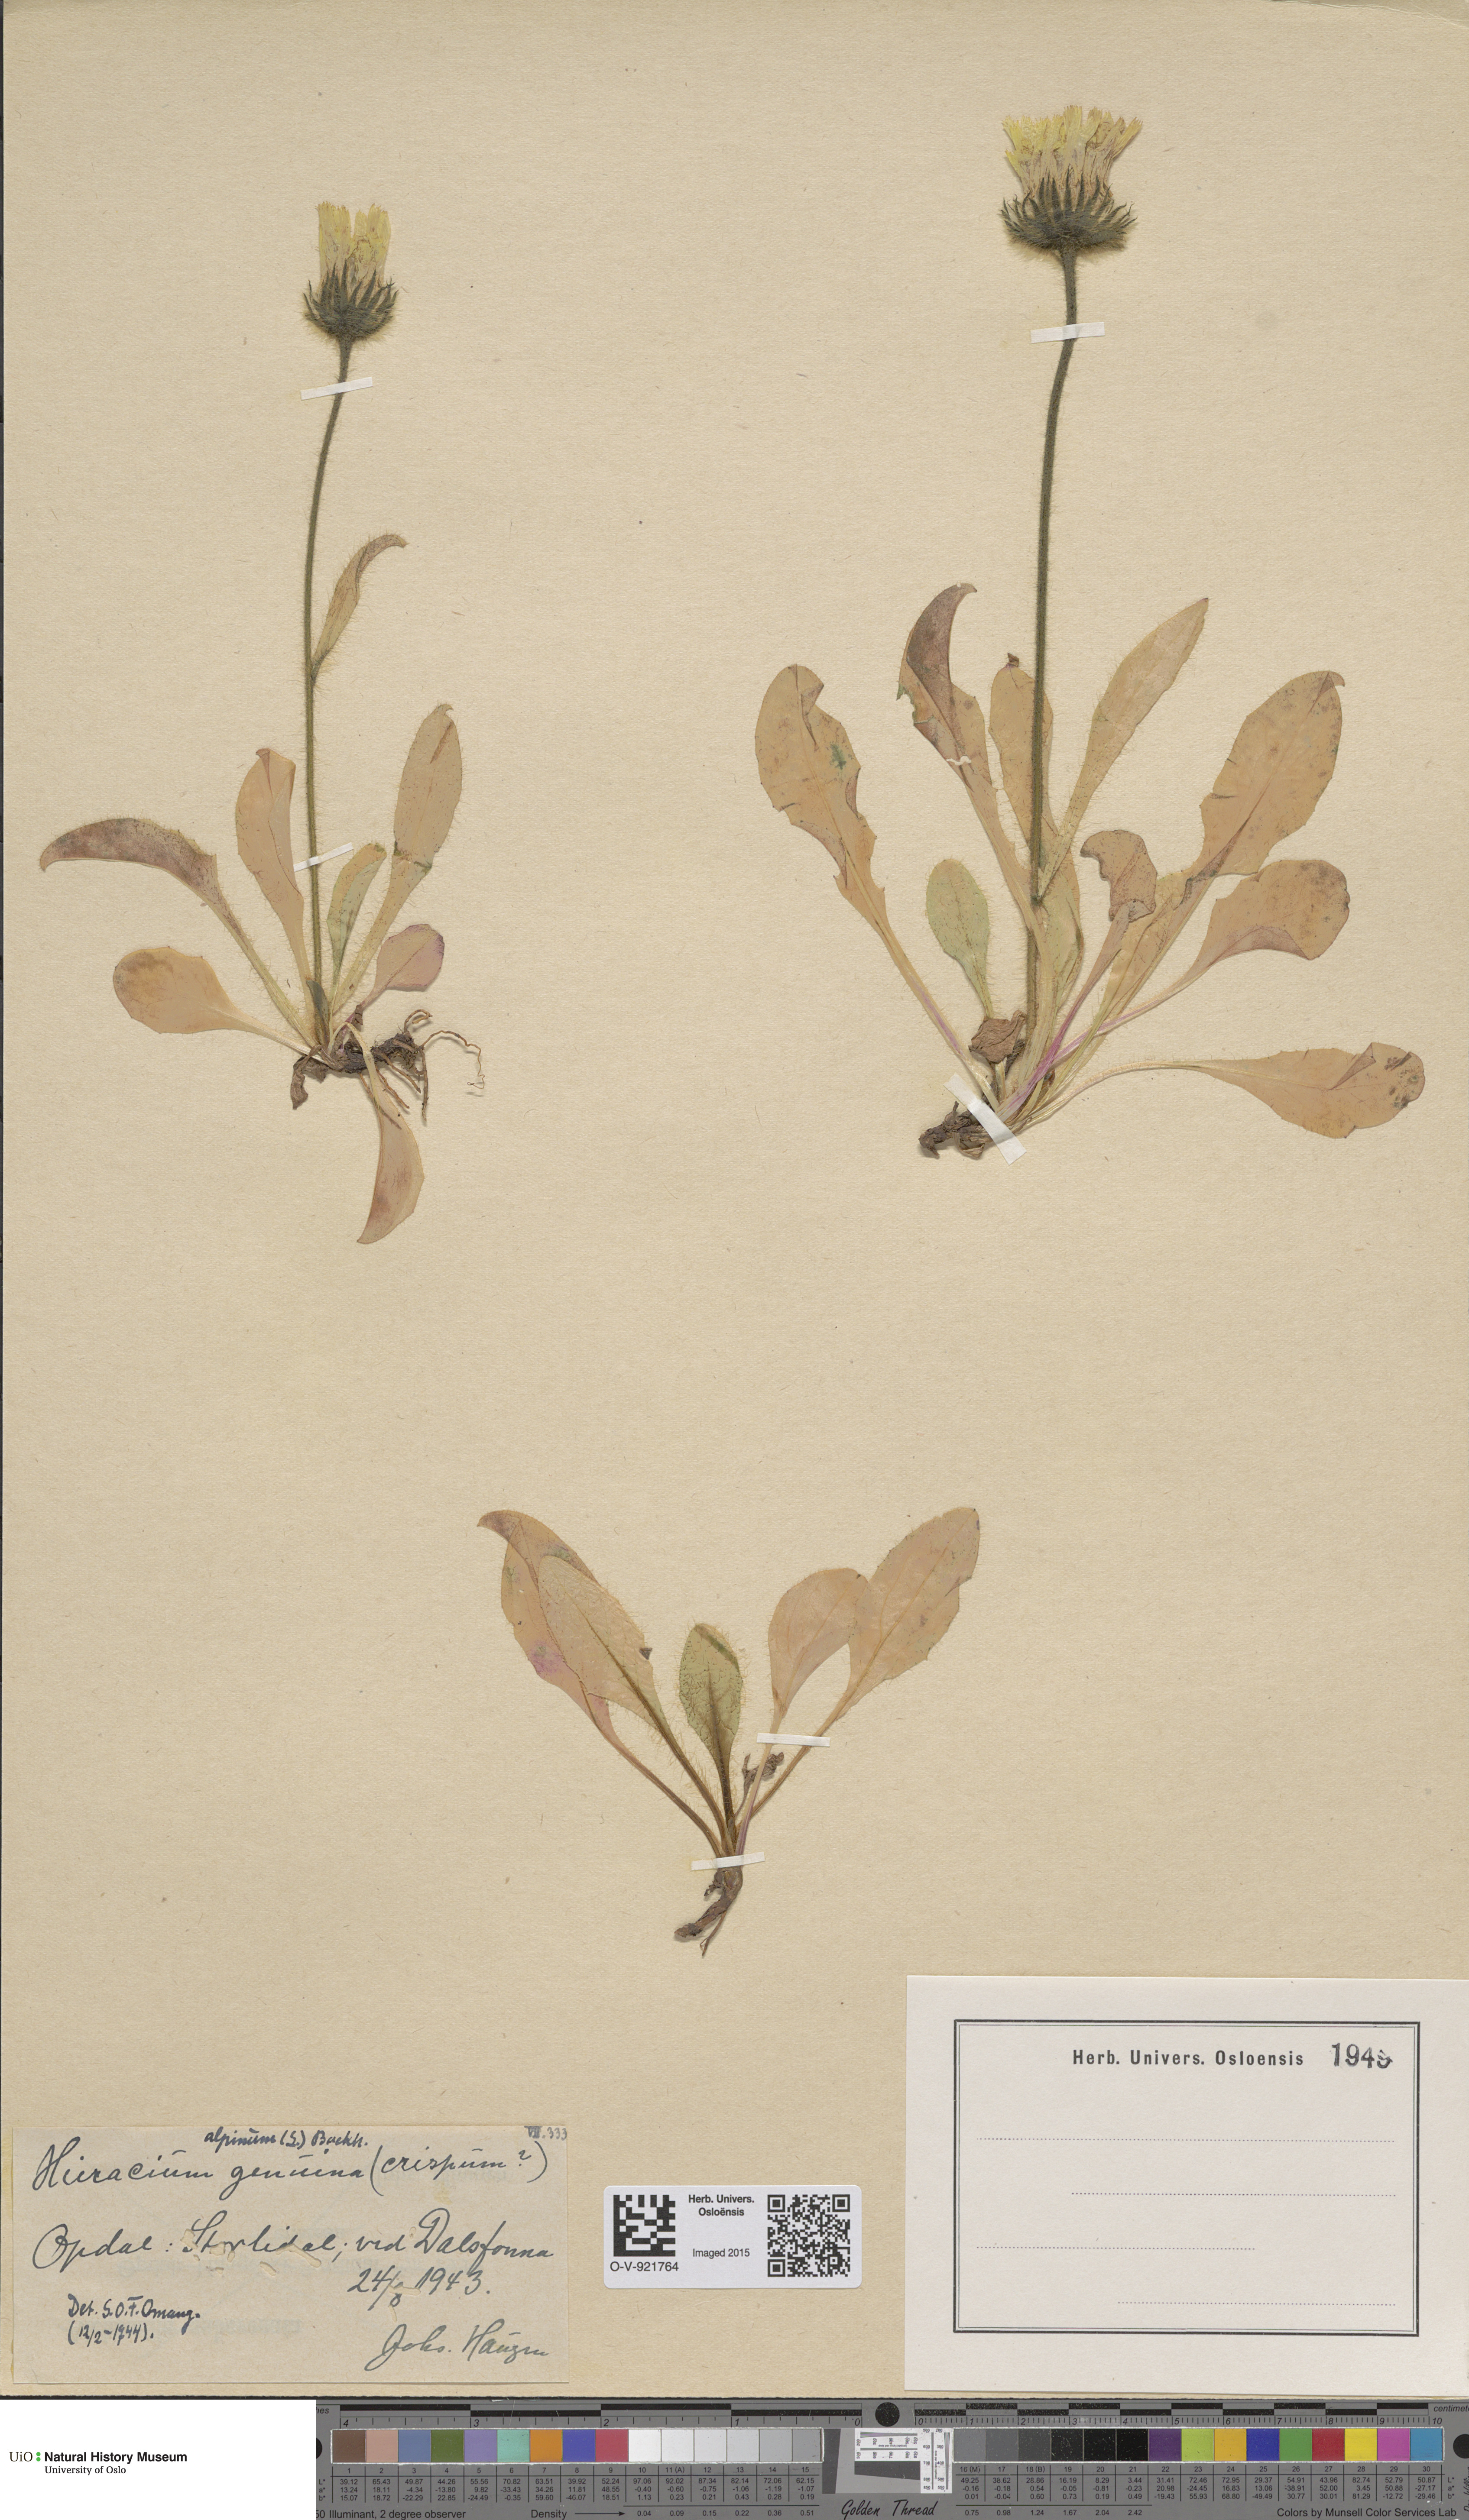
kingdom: Plantae
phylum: Tracheophyta
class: Magnoliopsida
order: Asterales
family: Asteraceae
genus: Hieracium
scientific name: Hieracium alpinum
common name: Alpine hawkweed
